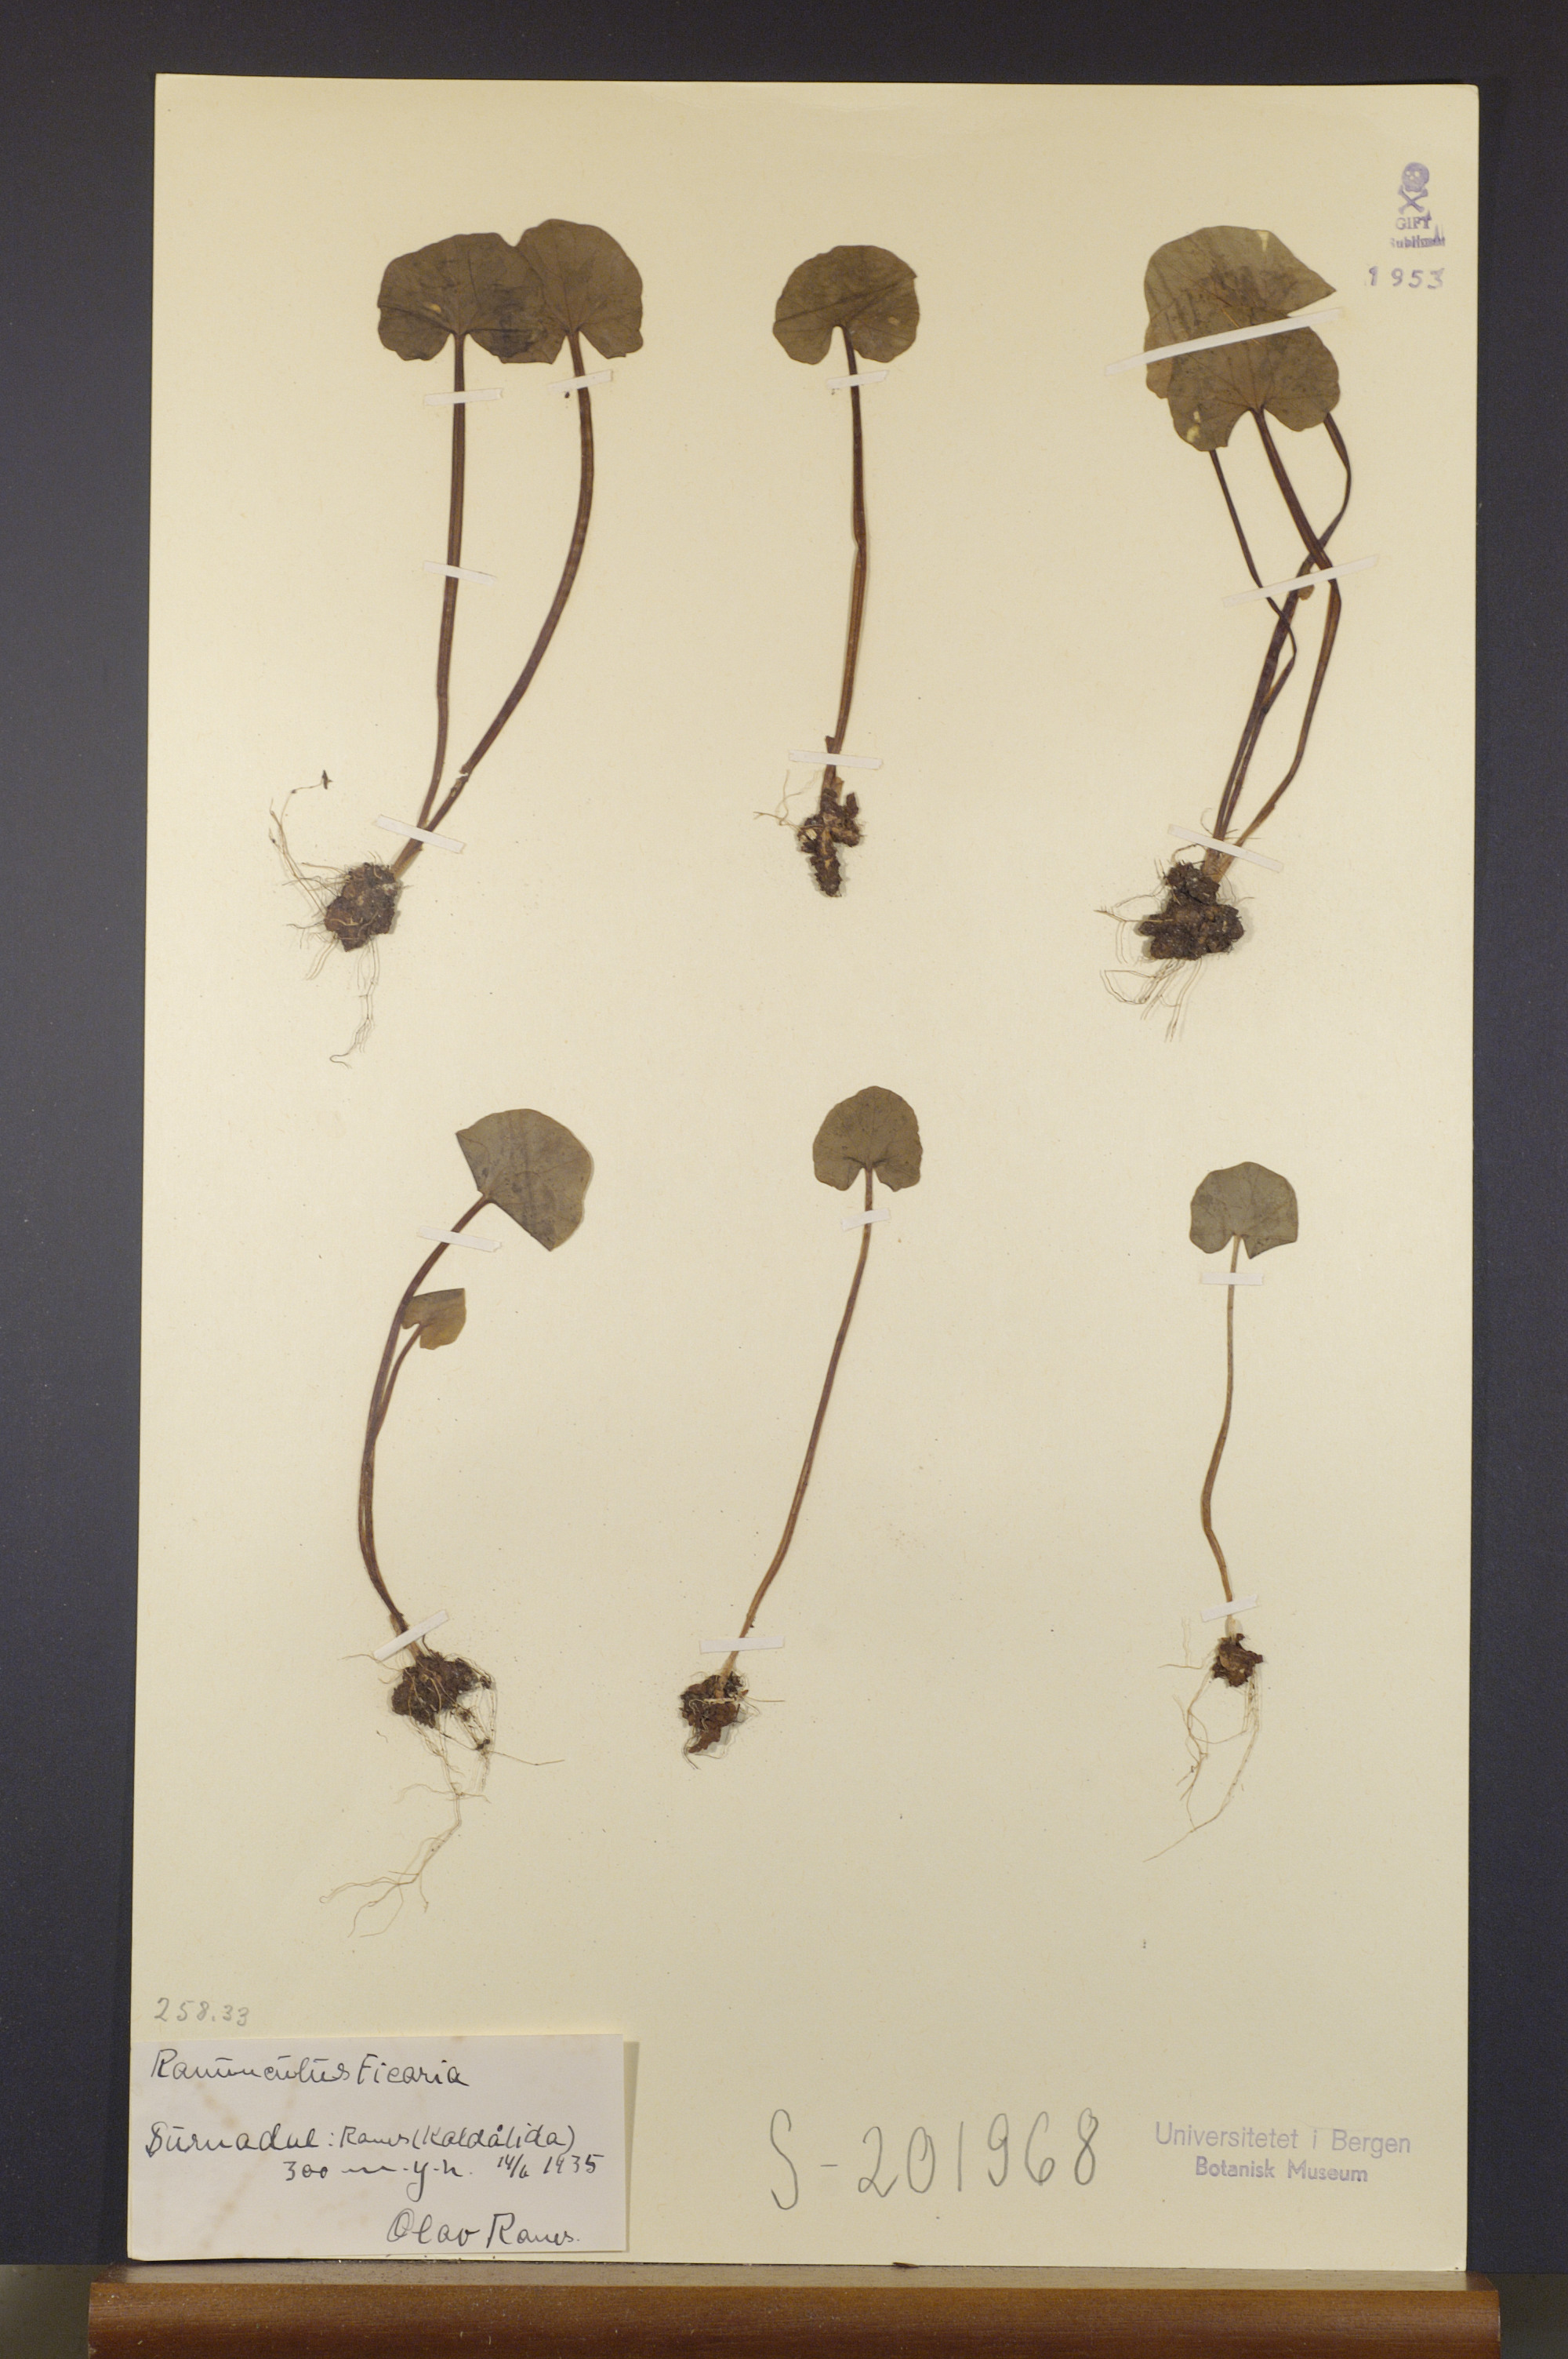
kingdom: Plantae
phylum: Tracheophyta
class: Magnoliopsida
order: Ranunculales
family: Ranunculaceae
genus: Ficaria
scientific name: Ficaria verna
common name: Lesser celandine
